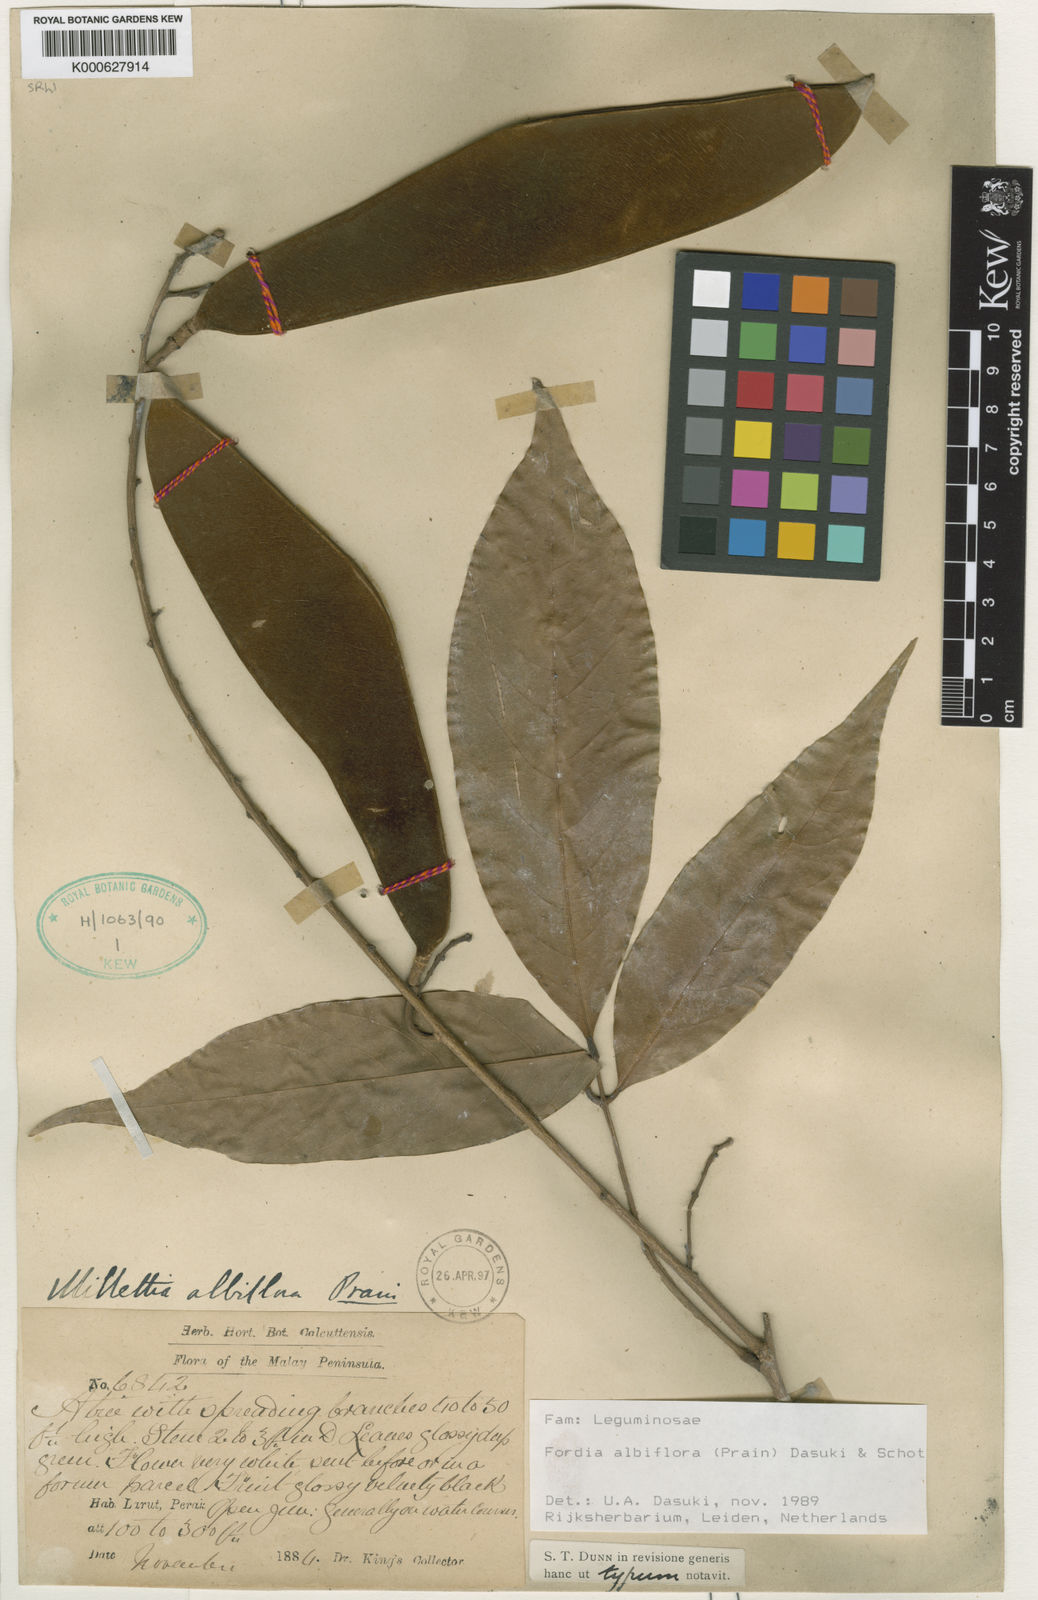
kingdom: Plantae
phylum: Tracheophyta
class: Magnoliopsida
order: Fabales
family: Fabaceae
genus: Imbralyx
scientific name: Imbralyx albiflorus
